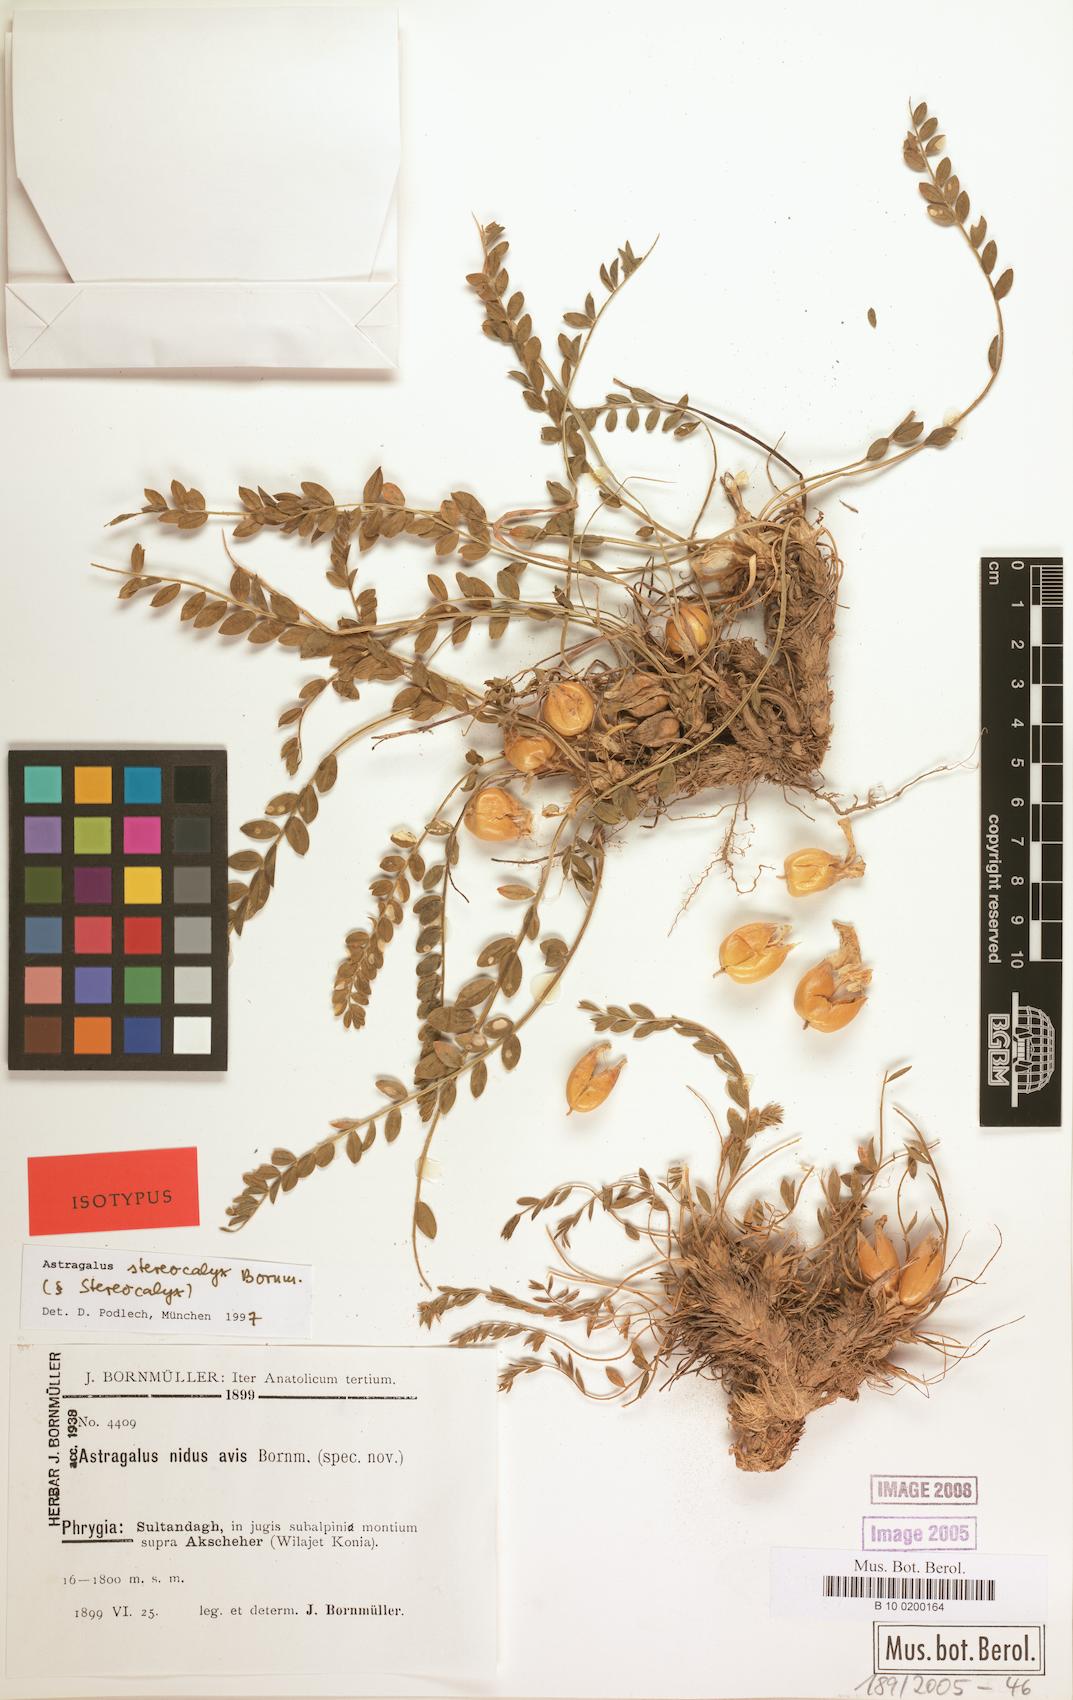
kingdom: Plantae
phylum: Tracheophyta
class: Magnoliopsida
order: Fabales
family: Fabaceae
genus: Astragalus
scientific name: Astragalus physocalyx
